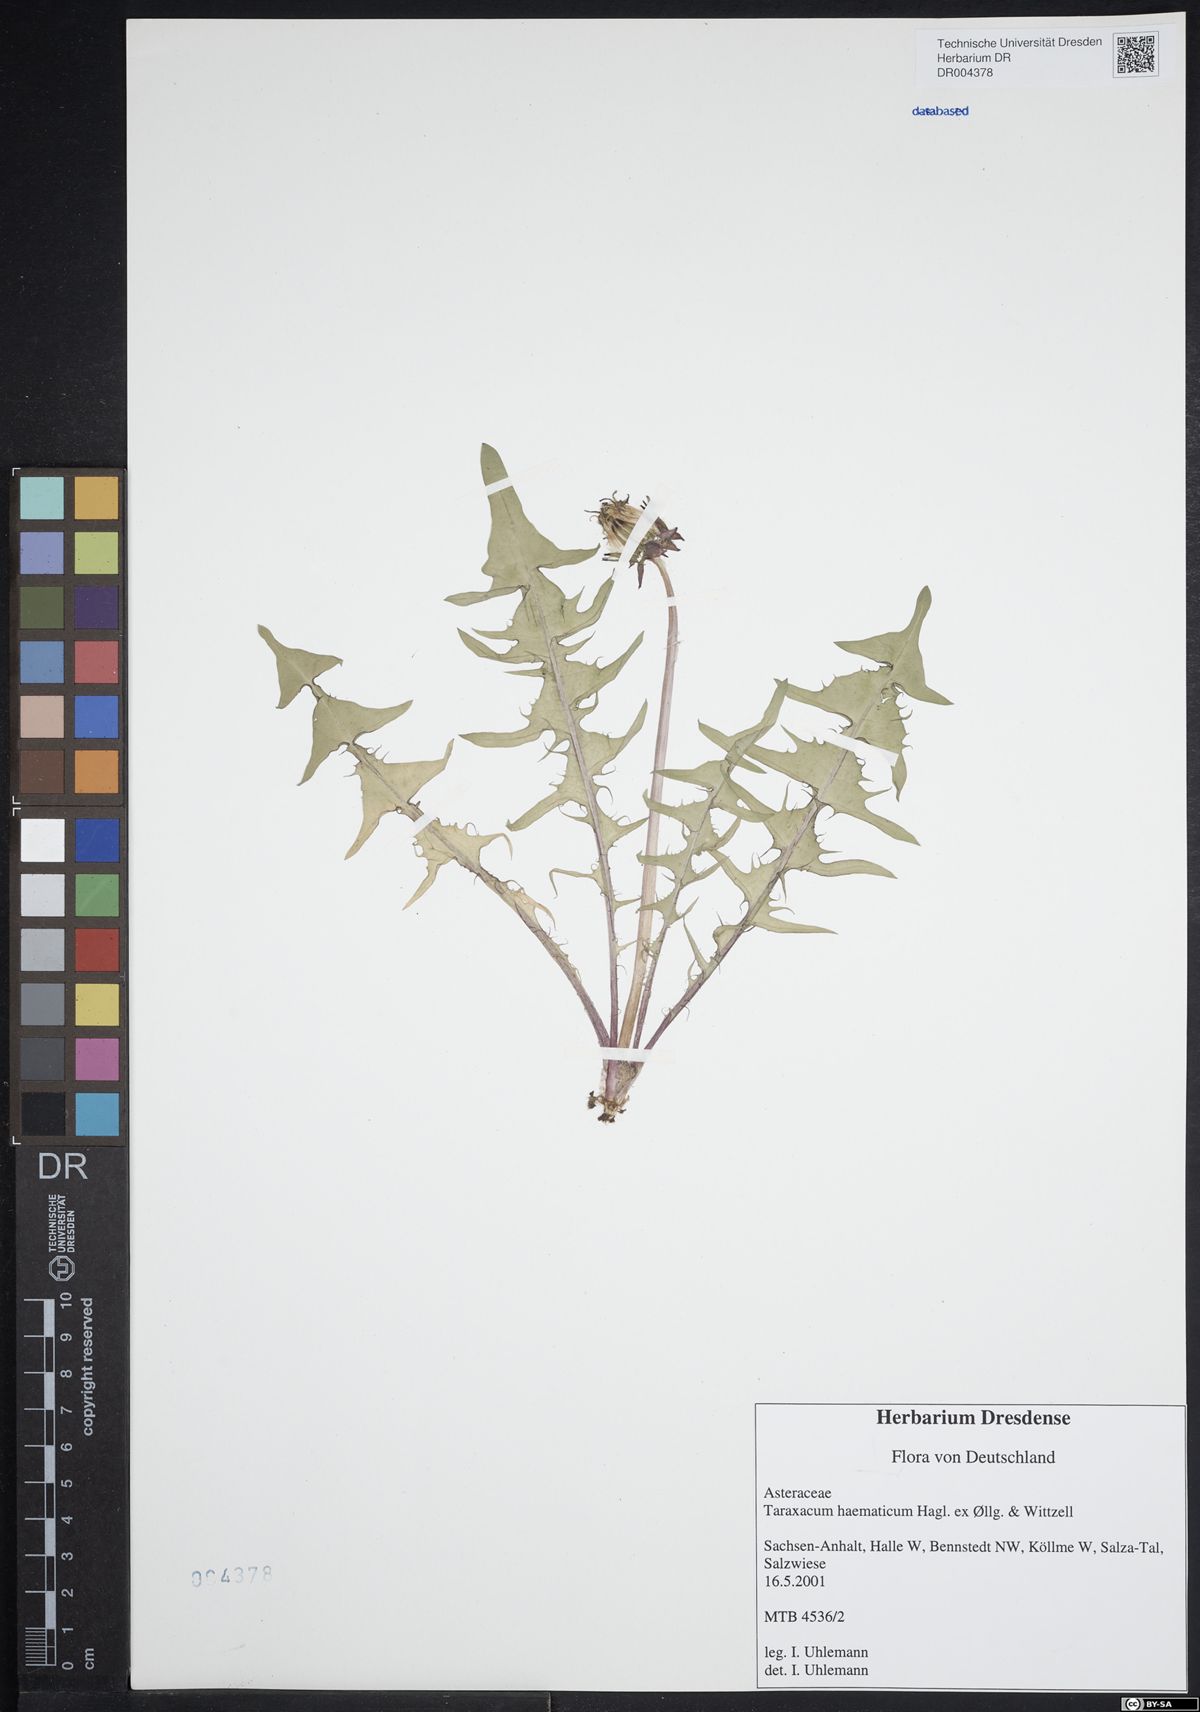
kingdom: Plantae
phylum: Tracheophyta
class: Magnoliopsida
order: Asterales
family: Asteraceae
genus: Taraxacum
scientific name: Taraxacum haematicum
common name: Blood-red dandelion
